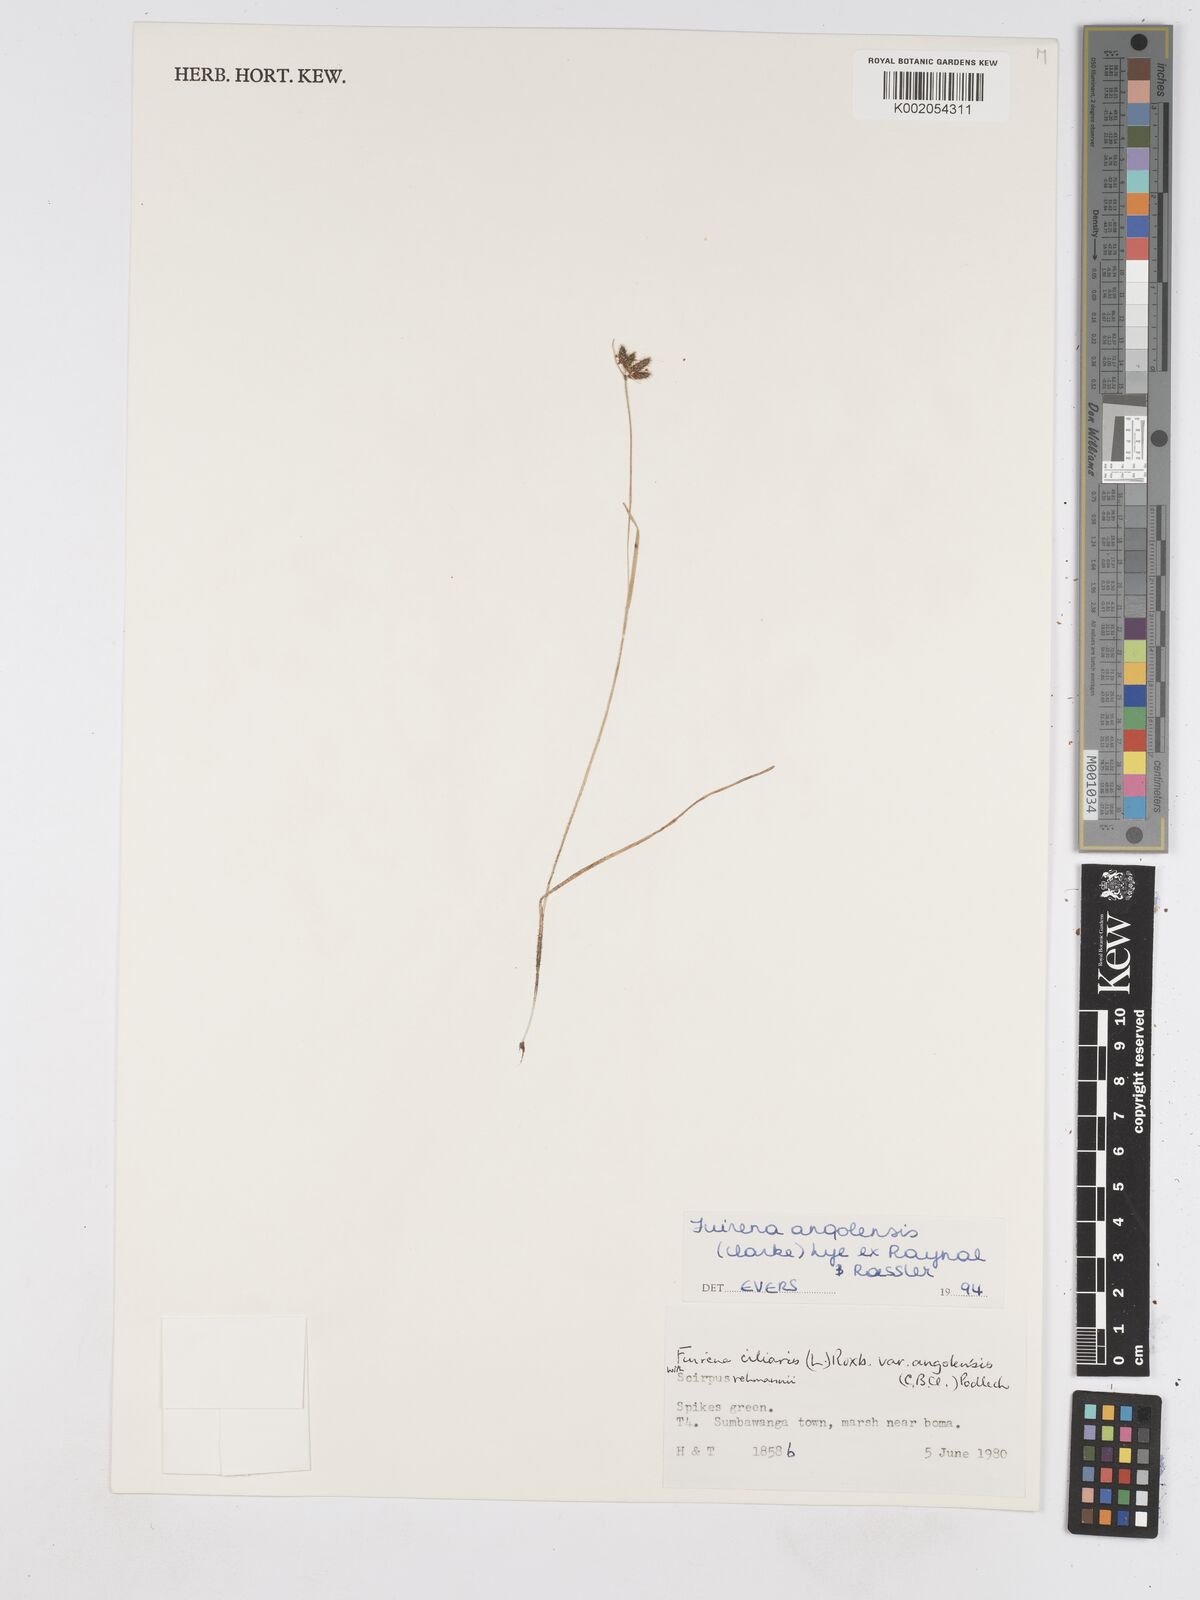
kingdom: Plantae
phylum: Tracheophyta
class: Liliopsida
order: Poales
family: Cyperaceae
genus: Fuirena
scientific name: Fuirena angolensis
